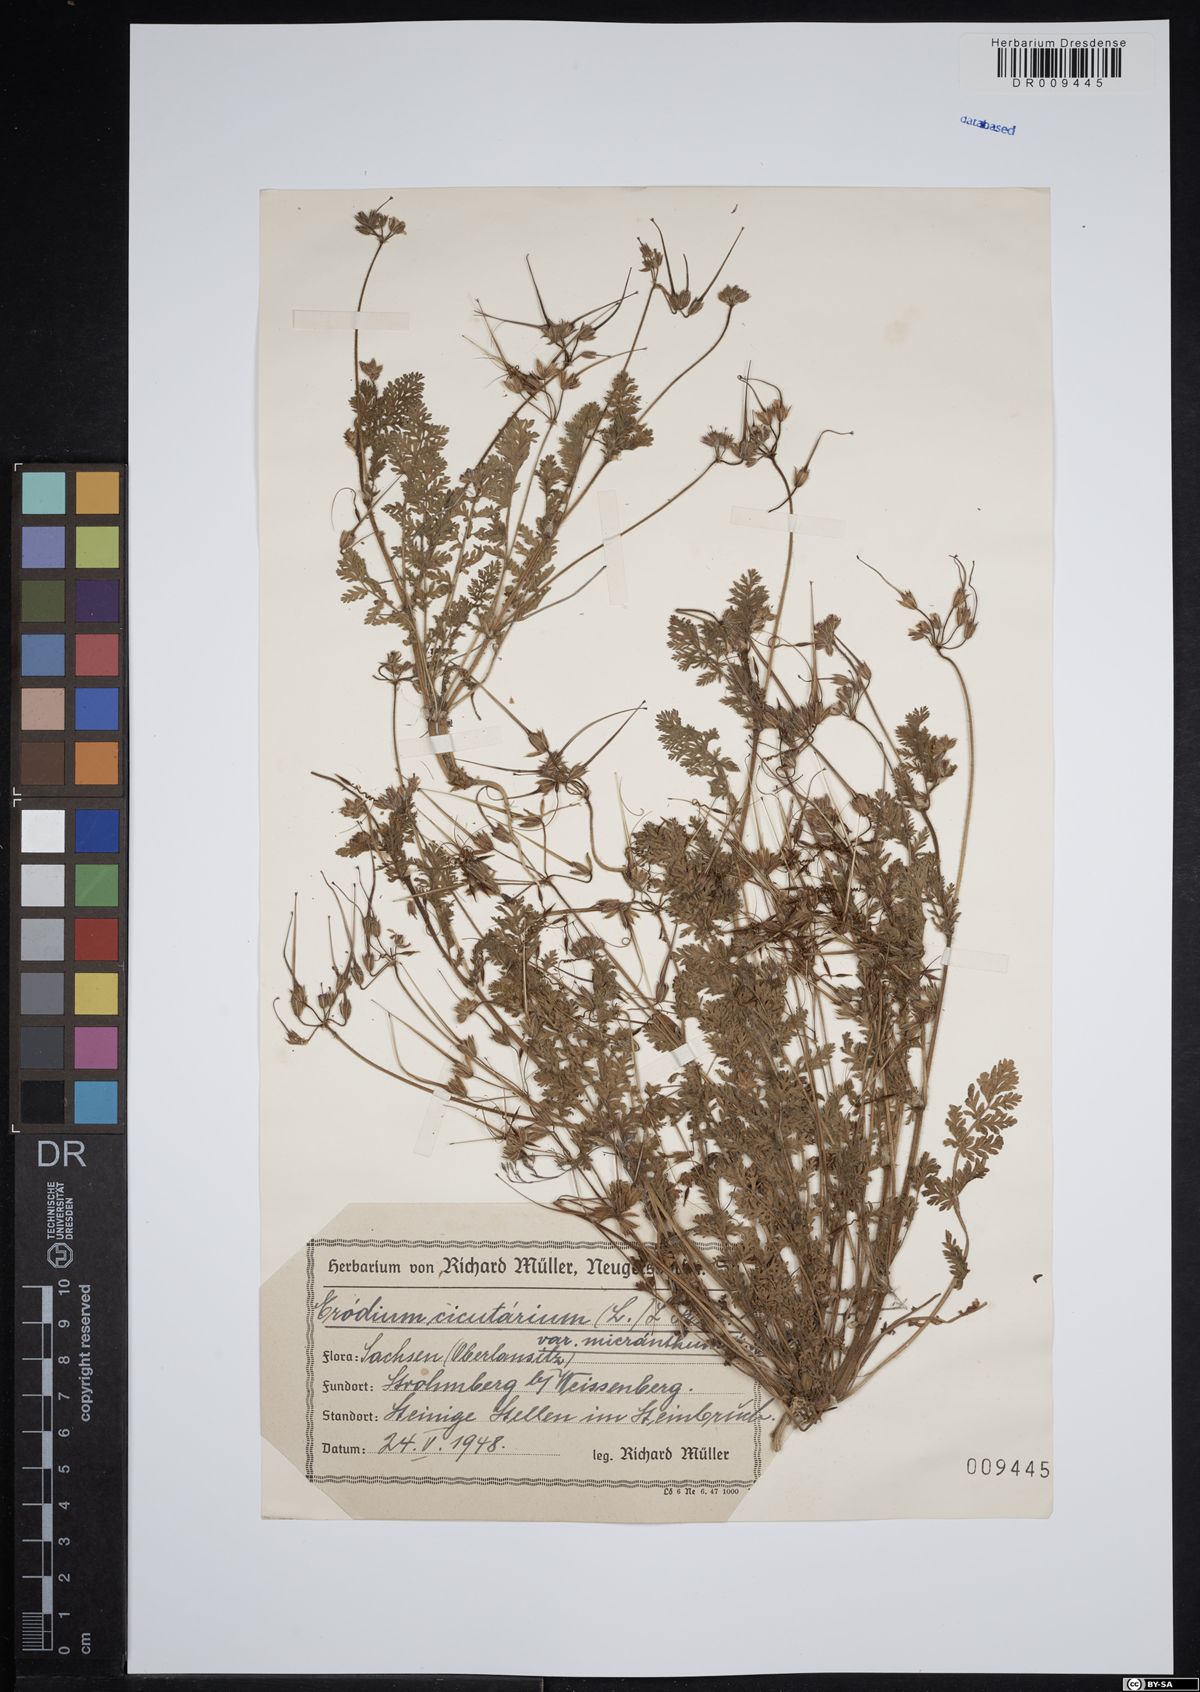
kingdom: Plantae
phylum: Tracheophyta
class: Magnoliopsida
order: Geraniales
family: Geraniaceae
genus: Erodium
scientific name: Erodium cicutarium
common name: Common stork's-bill
